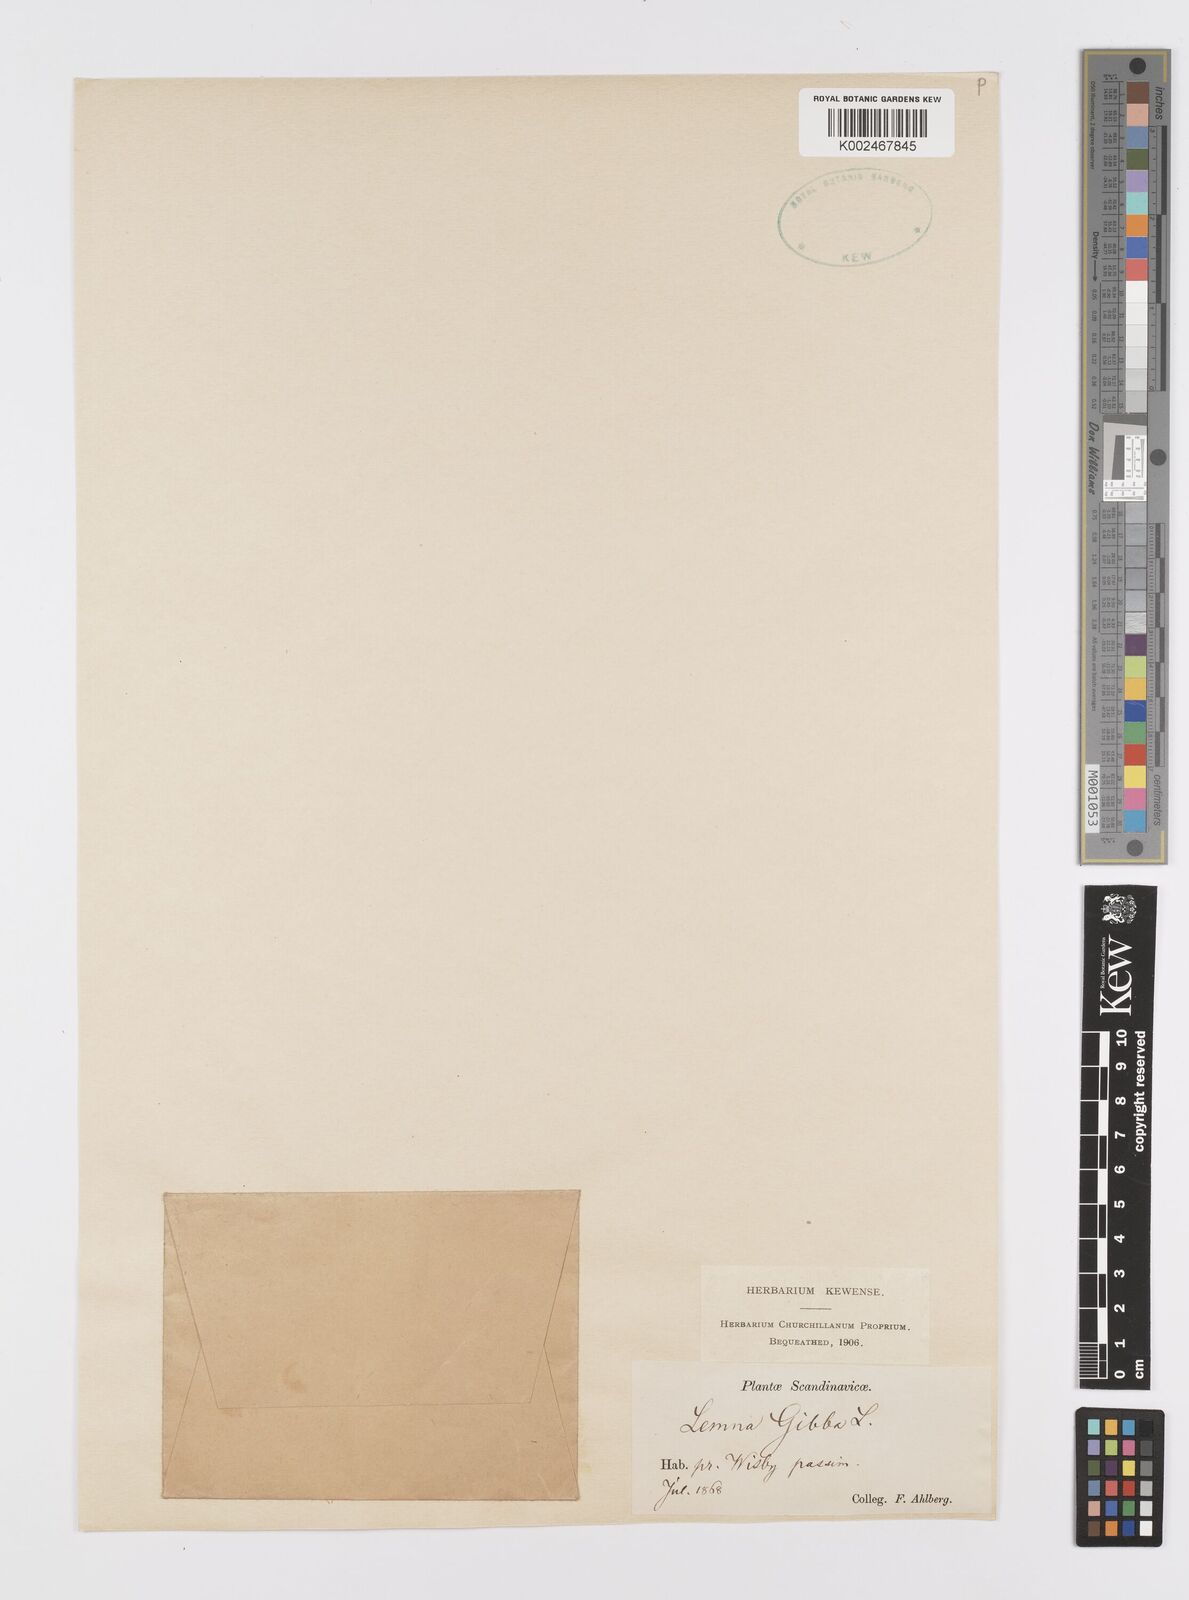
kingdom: Plantae
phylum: Tracheophyta
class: Liliopsida
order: Alismatales
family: Araceae
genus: Lemna
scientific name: Lemna gibba
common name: Fat duckweed
